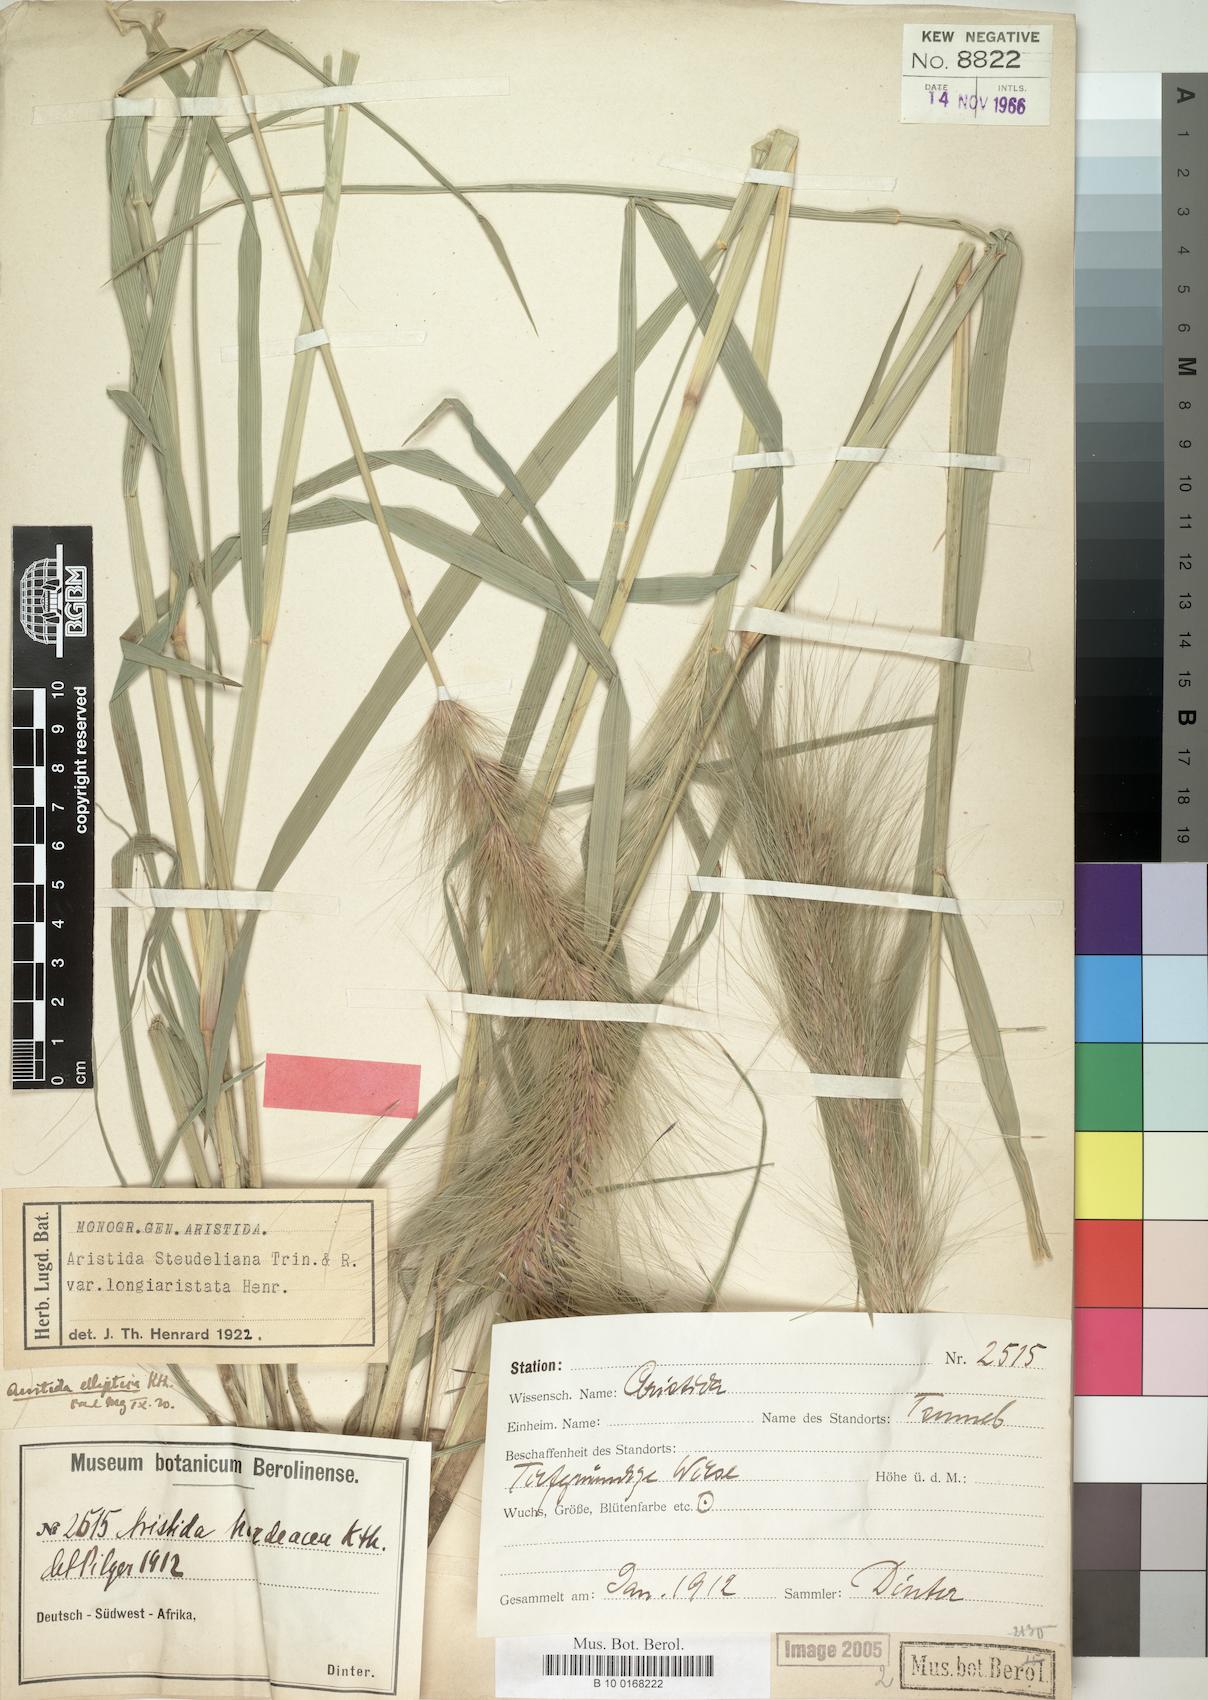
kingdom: Plantae
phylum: Tracheophyta
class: Liliopsida
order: Poales
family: Poaceae
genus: Aristida
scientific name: Aristida hordeacea
